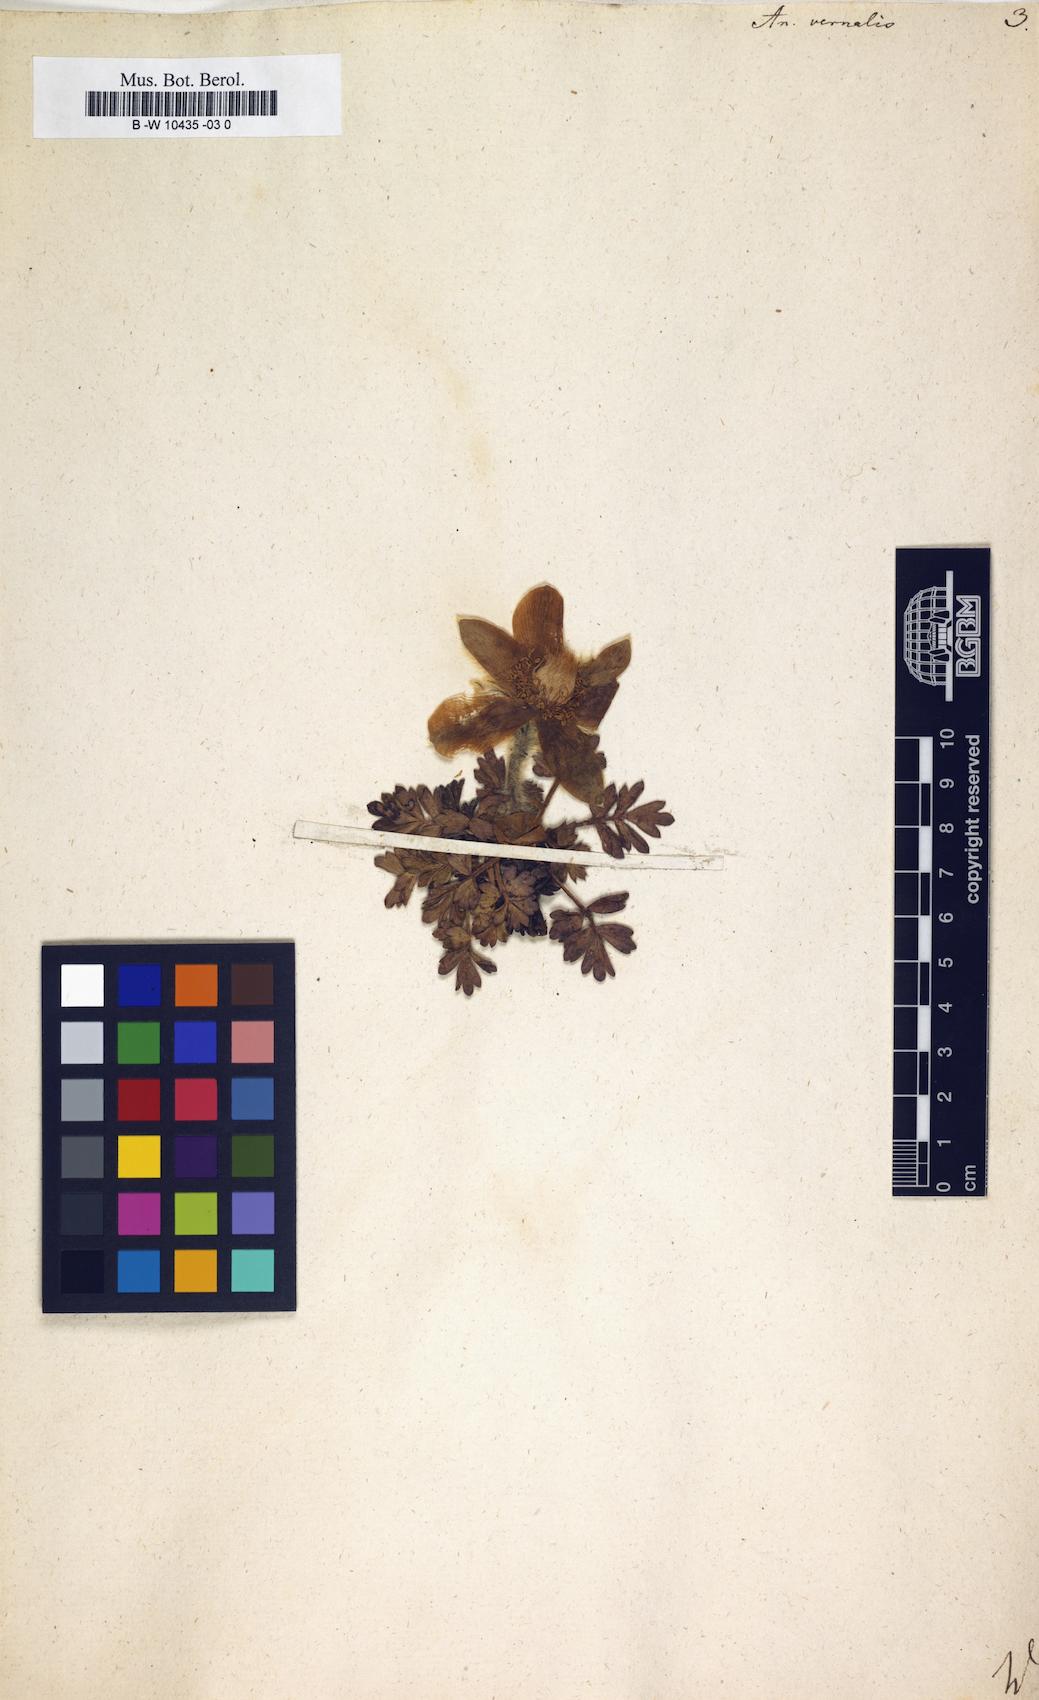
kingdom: Plantae
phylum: Tracheophyta
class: Magnoliopsida
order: Ranunculales
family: Ranunculaceae
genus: Pulsatilla
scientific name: Pulsatilla vernalis
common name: Spring pasque flower
